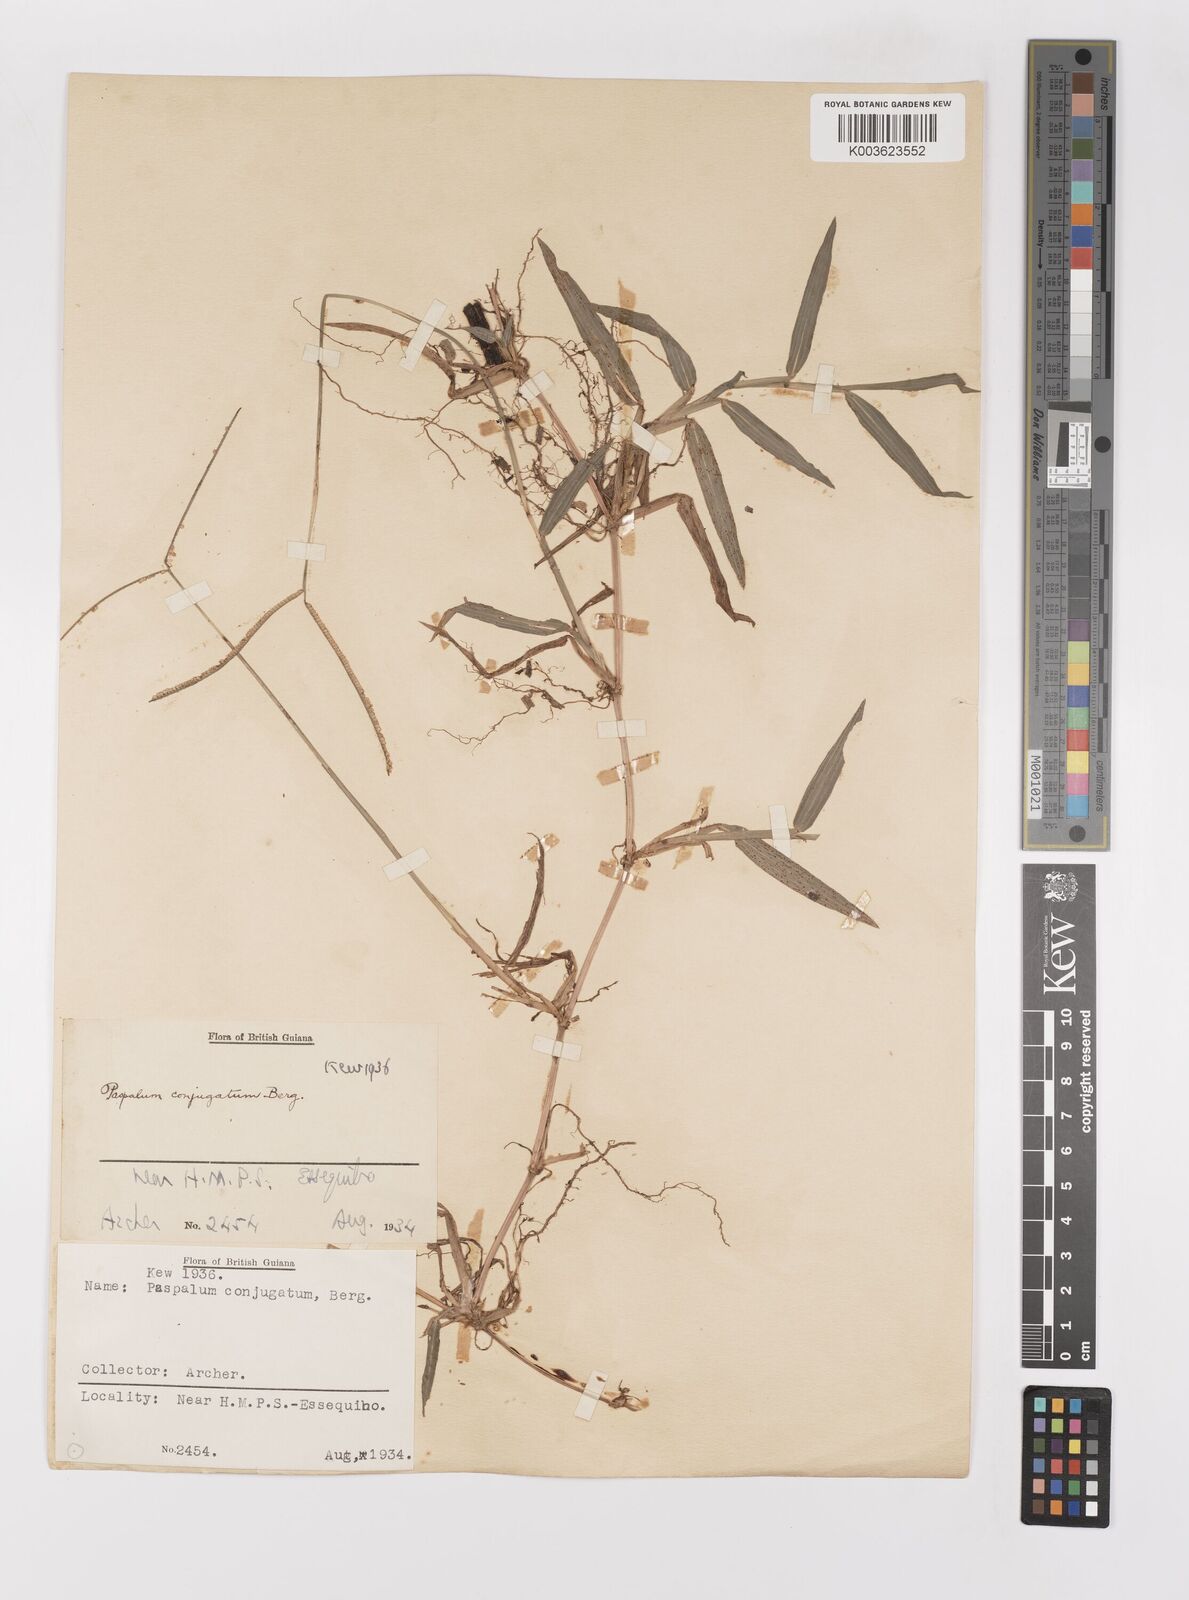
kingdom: Plantae
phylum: Tracheophyta
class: Liliopsida
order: Poales
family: Poaceae
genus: Paspalum
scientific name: Paspalum conjugatum
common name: Hilograss
